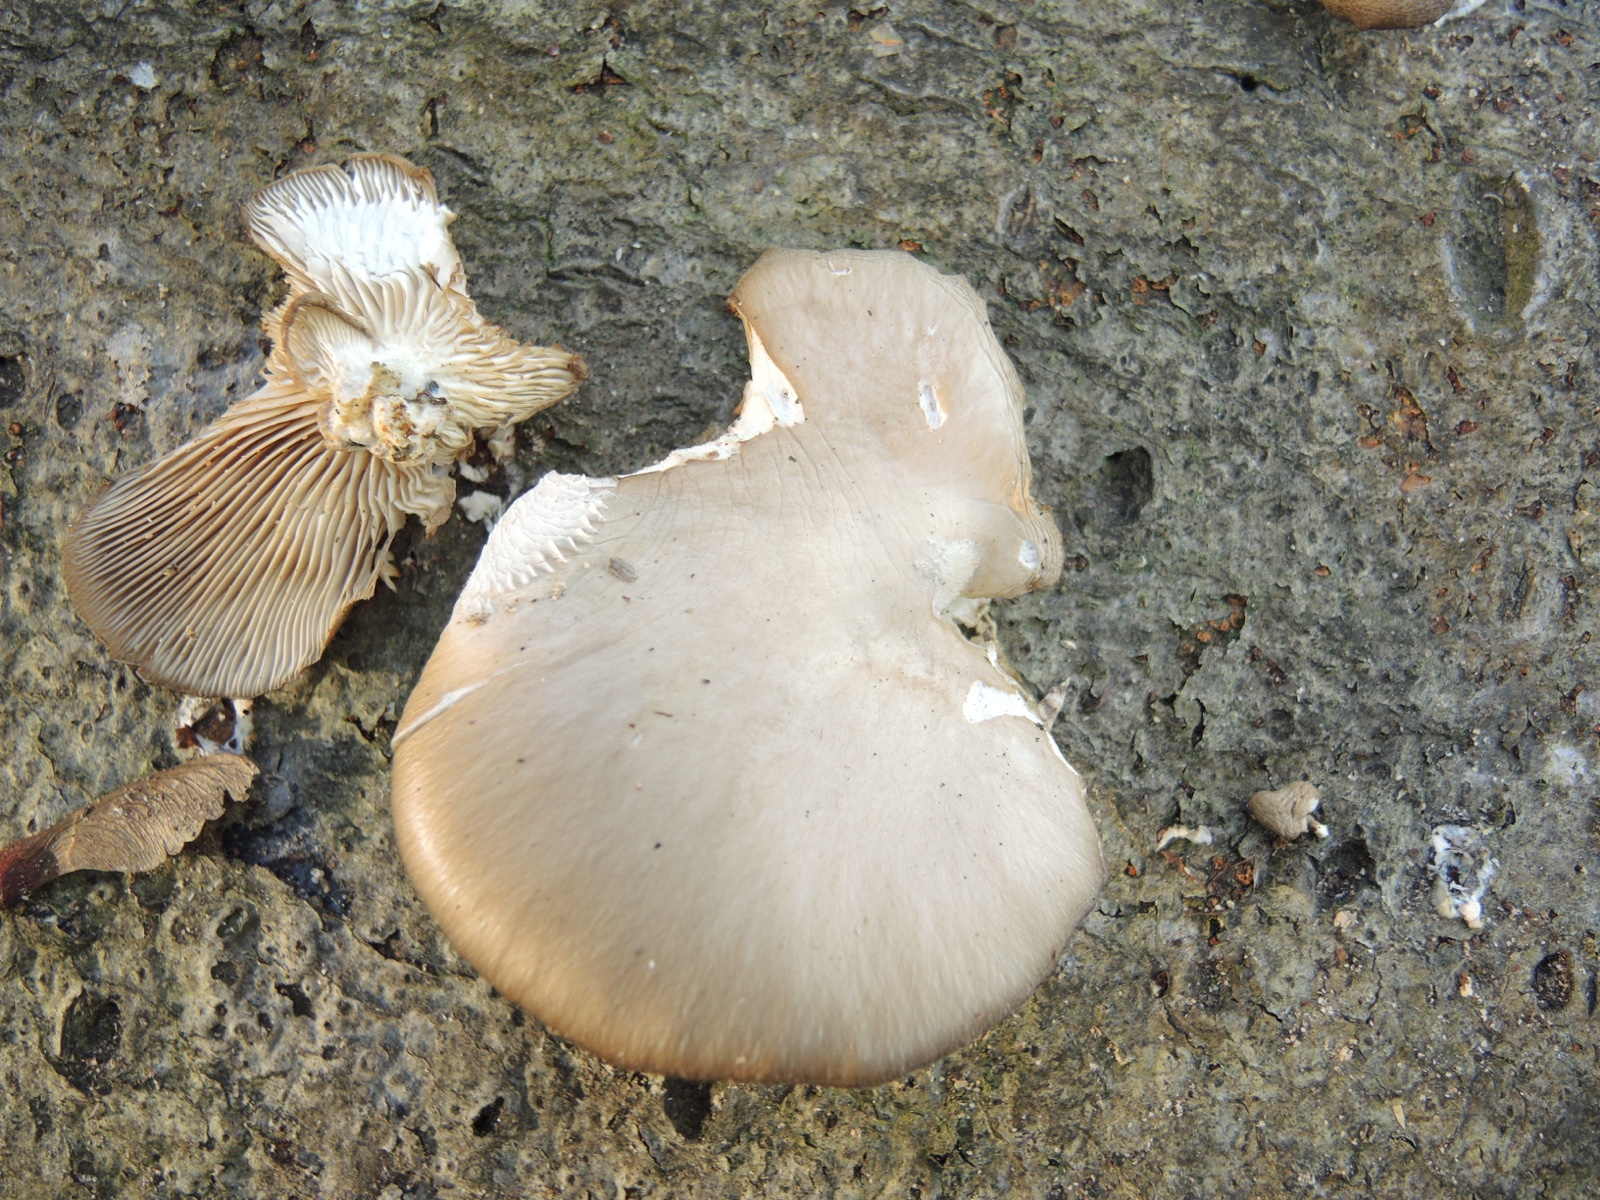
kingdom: Fungi
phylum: Basidiomycota
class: Agaricomycetes
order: Agaricales
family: Pleurotaceae
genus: Pleurotus
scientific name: Pleurotus ostreatus
